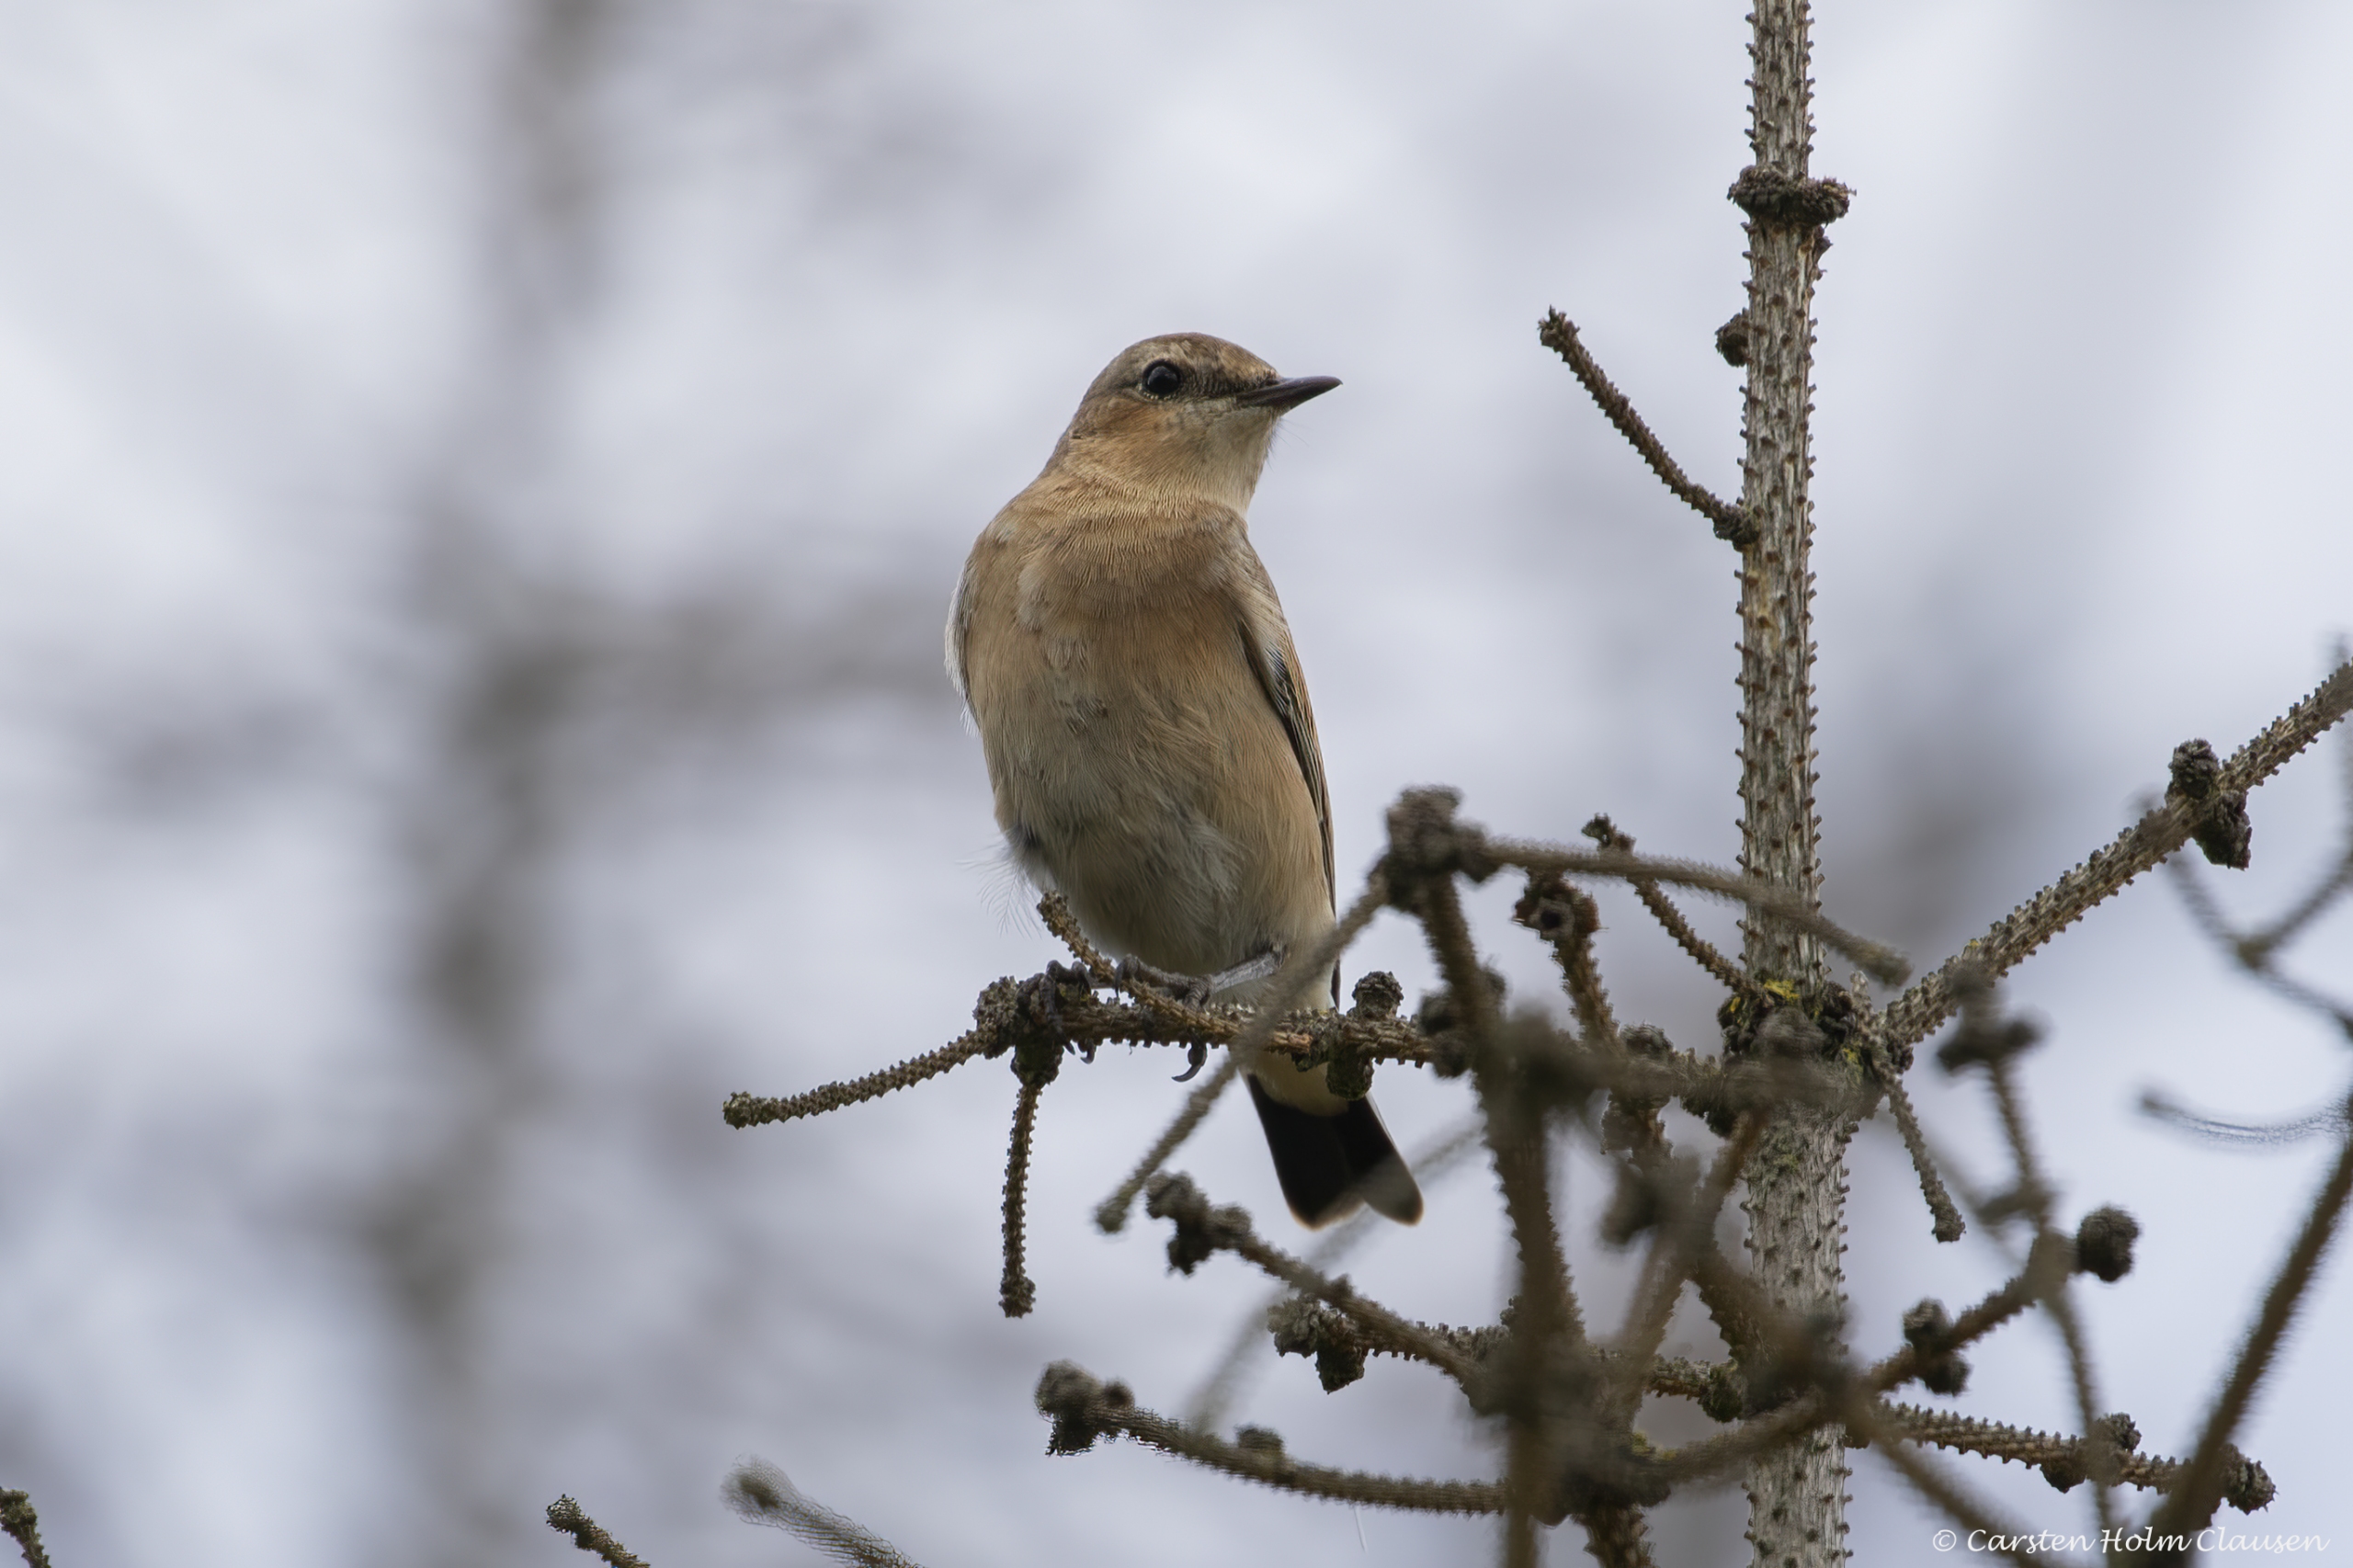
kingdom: Animalia
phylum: Chordata
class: Aves
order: Passeriformes
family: Muscicapidae
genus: Oenanthe
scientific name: Oenanthe oenanthe
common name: Stenpikker
